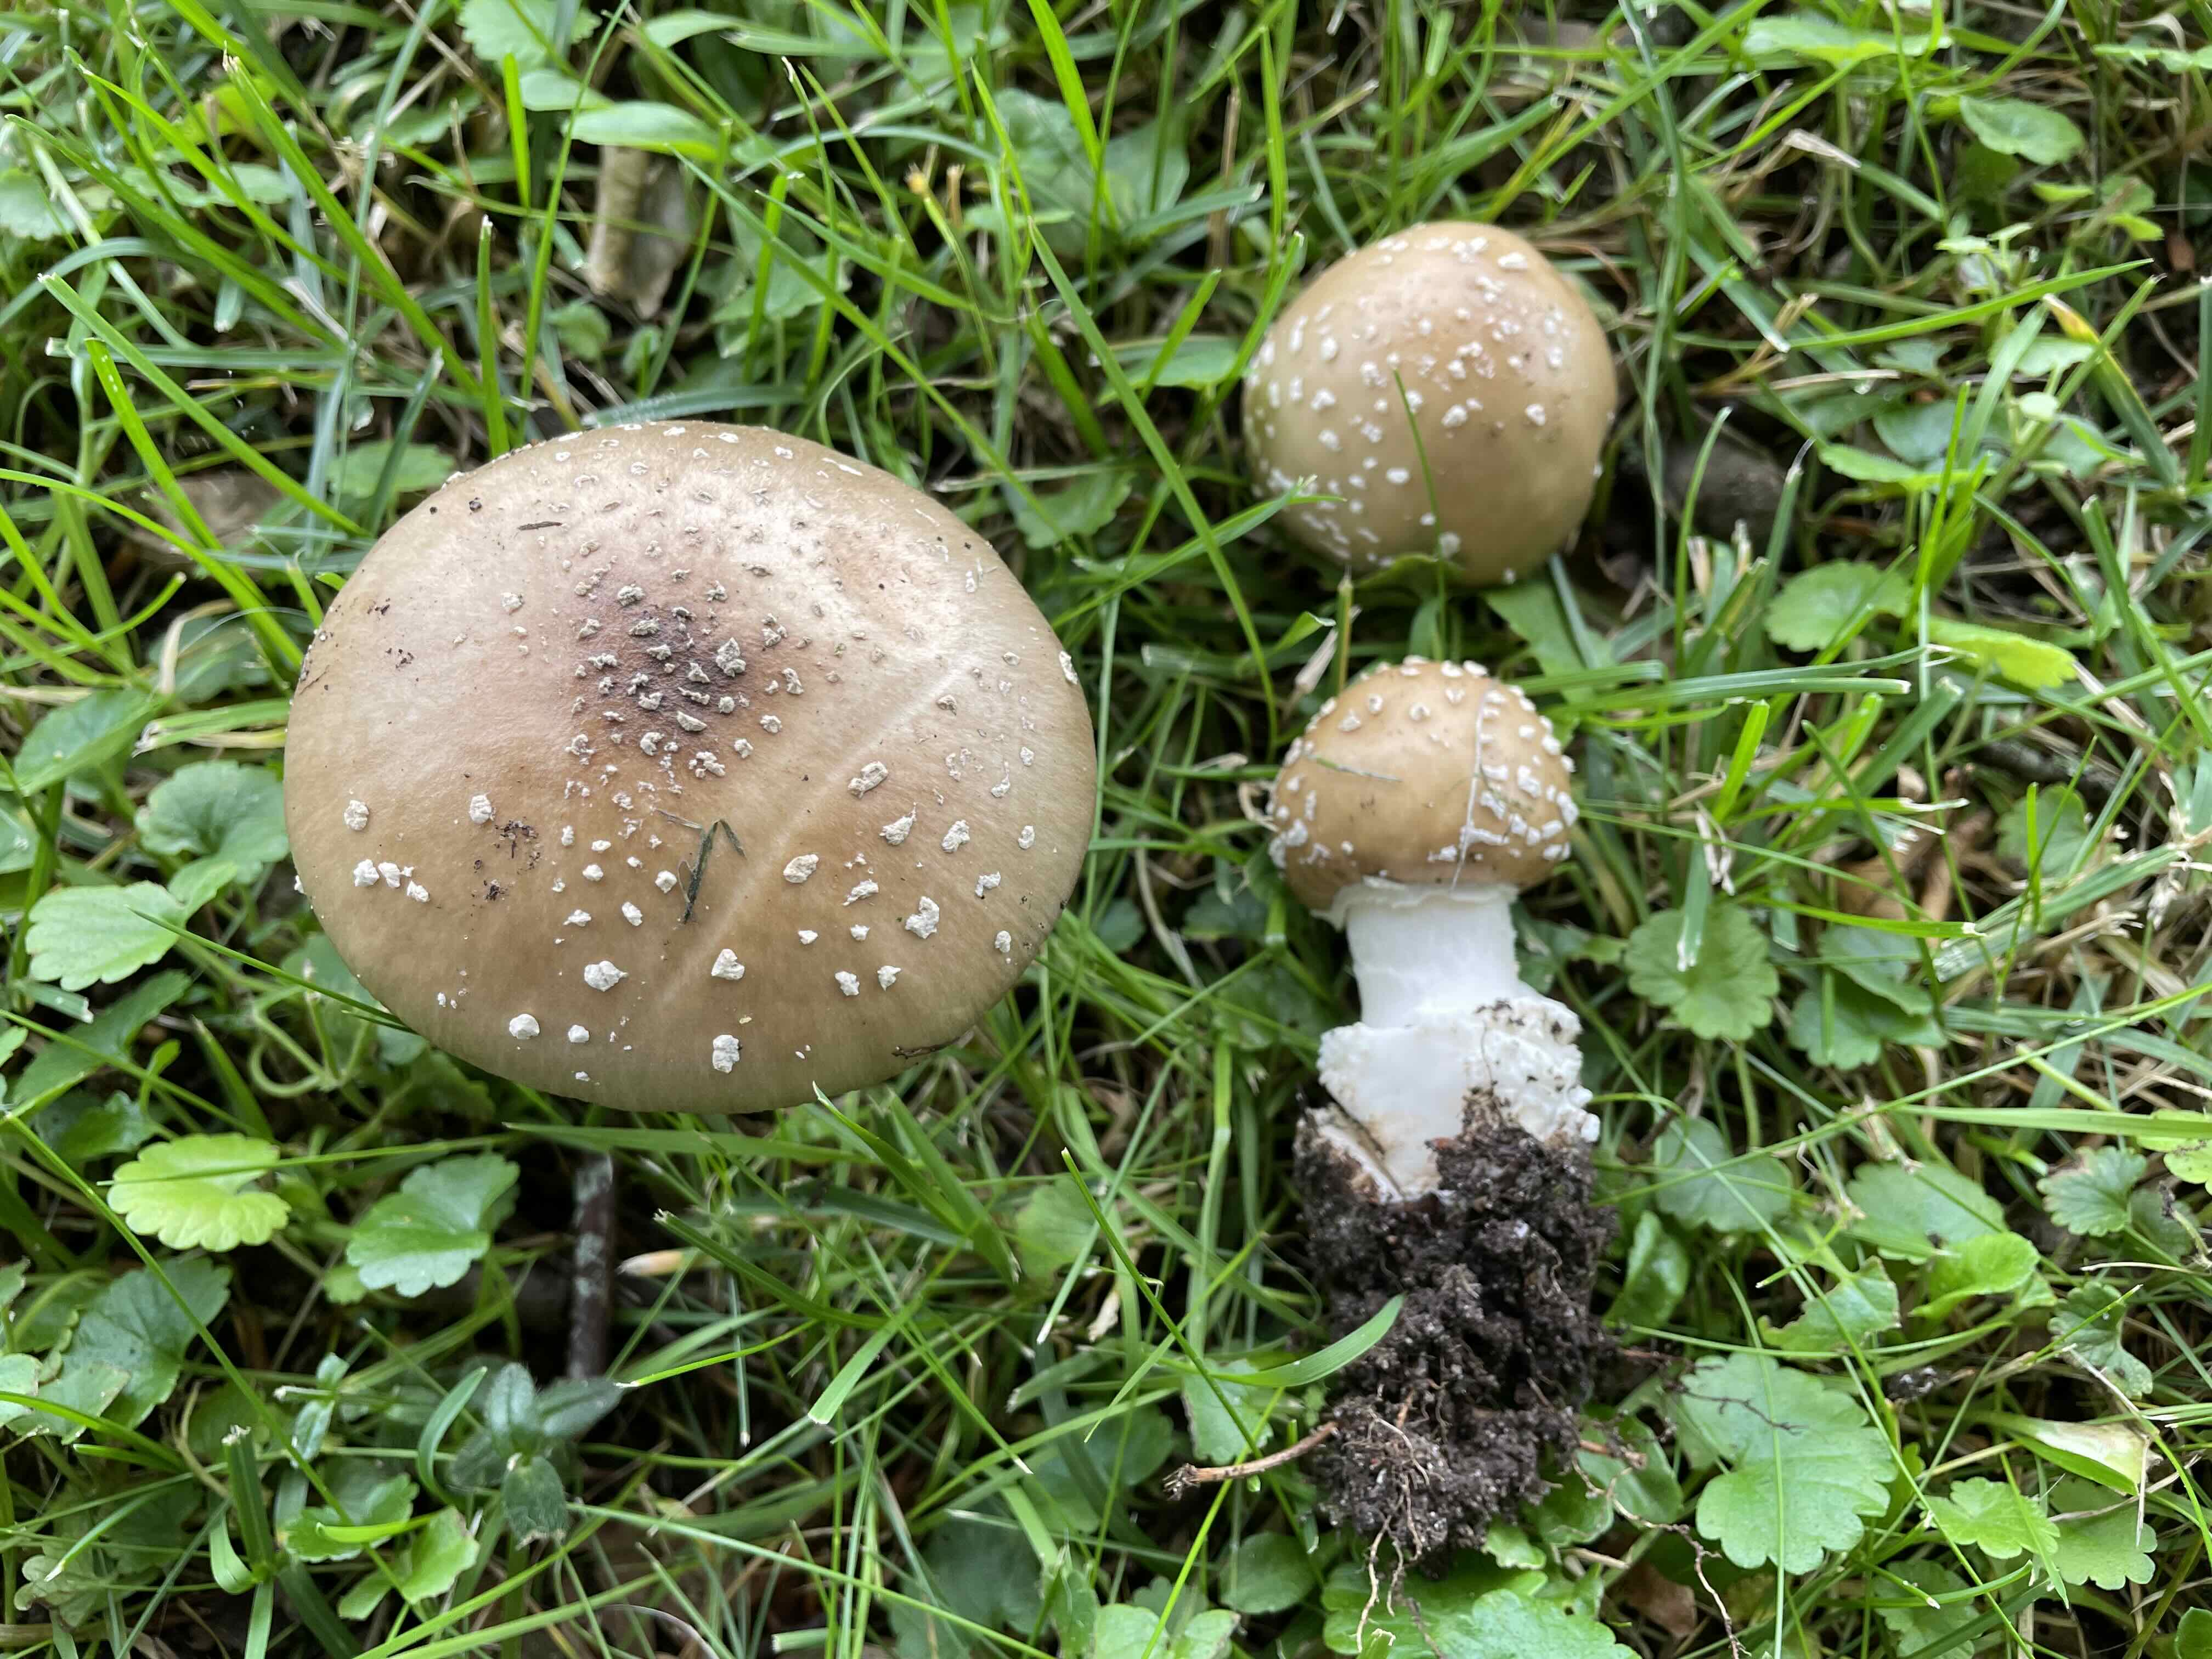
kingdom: Fungi
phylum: Basidiomycota
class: Agaricomycetes
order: Agaricales
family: Amanitaceae
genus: Amanita
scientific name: Amanita pantherina
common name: panter-fluesvamp
